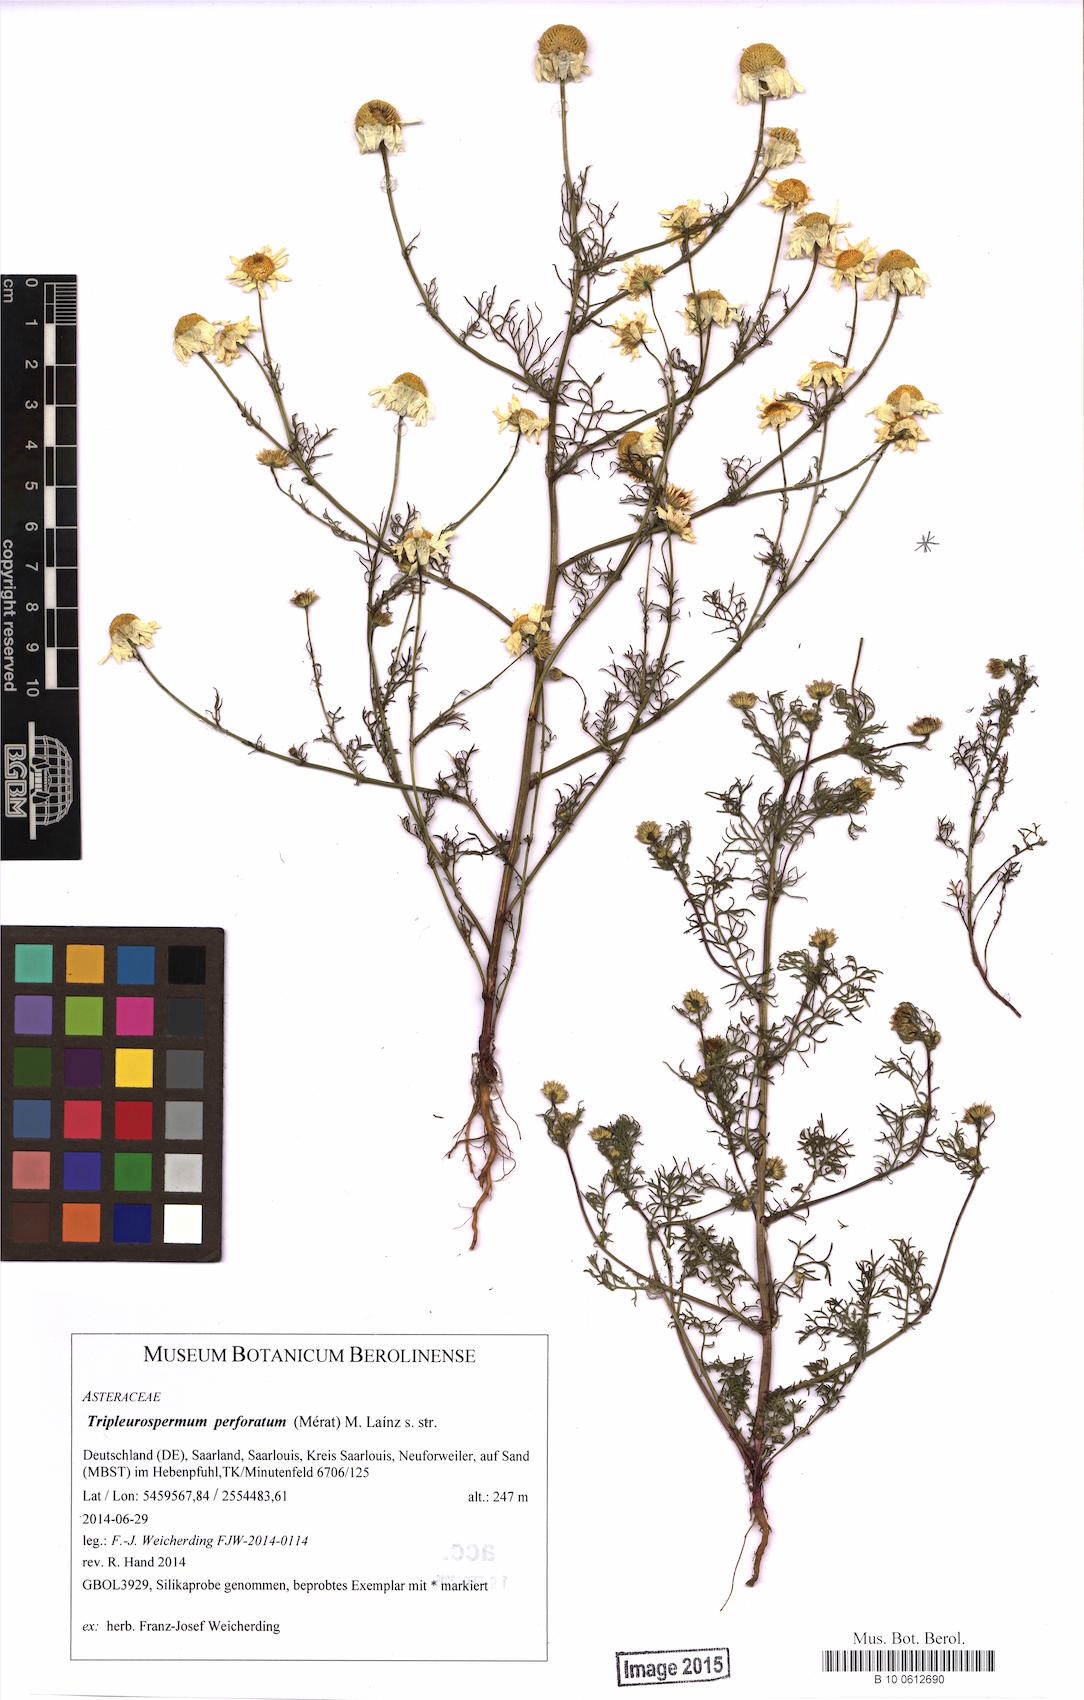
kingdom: Plantae
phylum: Tracheophyta
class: Magnoliopsida
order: Asterales
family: Asteraceae
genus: Tripleurospermum
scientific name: Tripleurospermum inodorum
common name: Scentless mayweed
